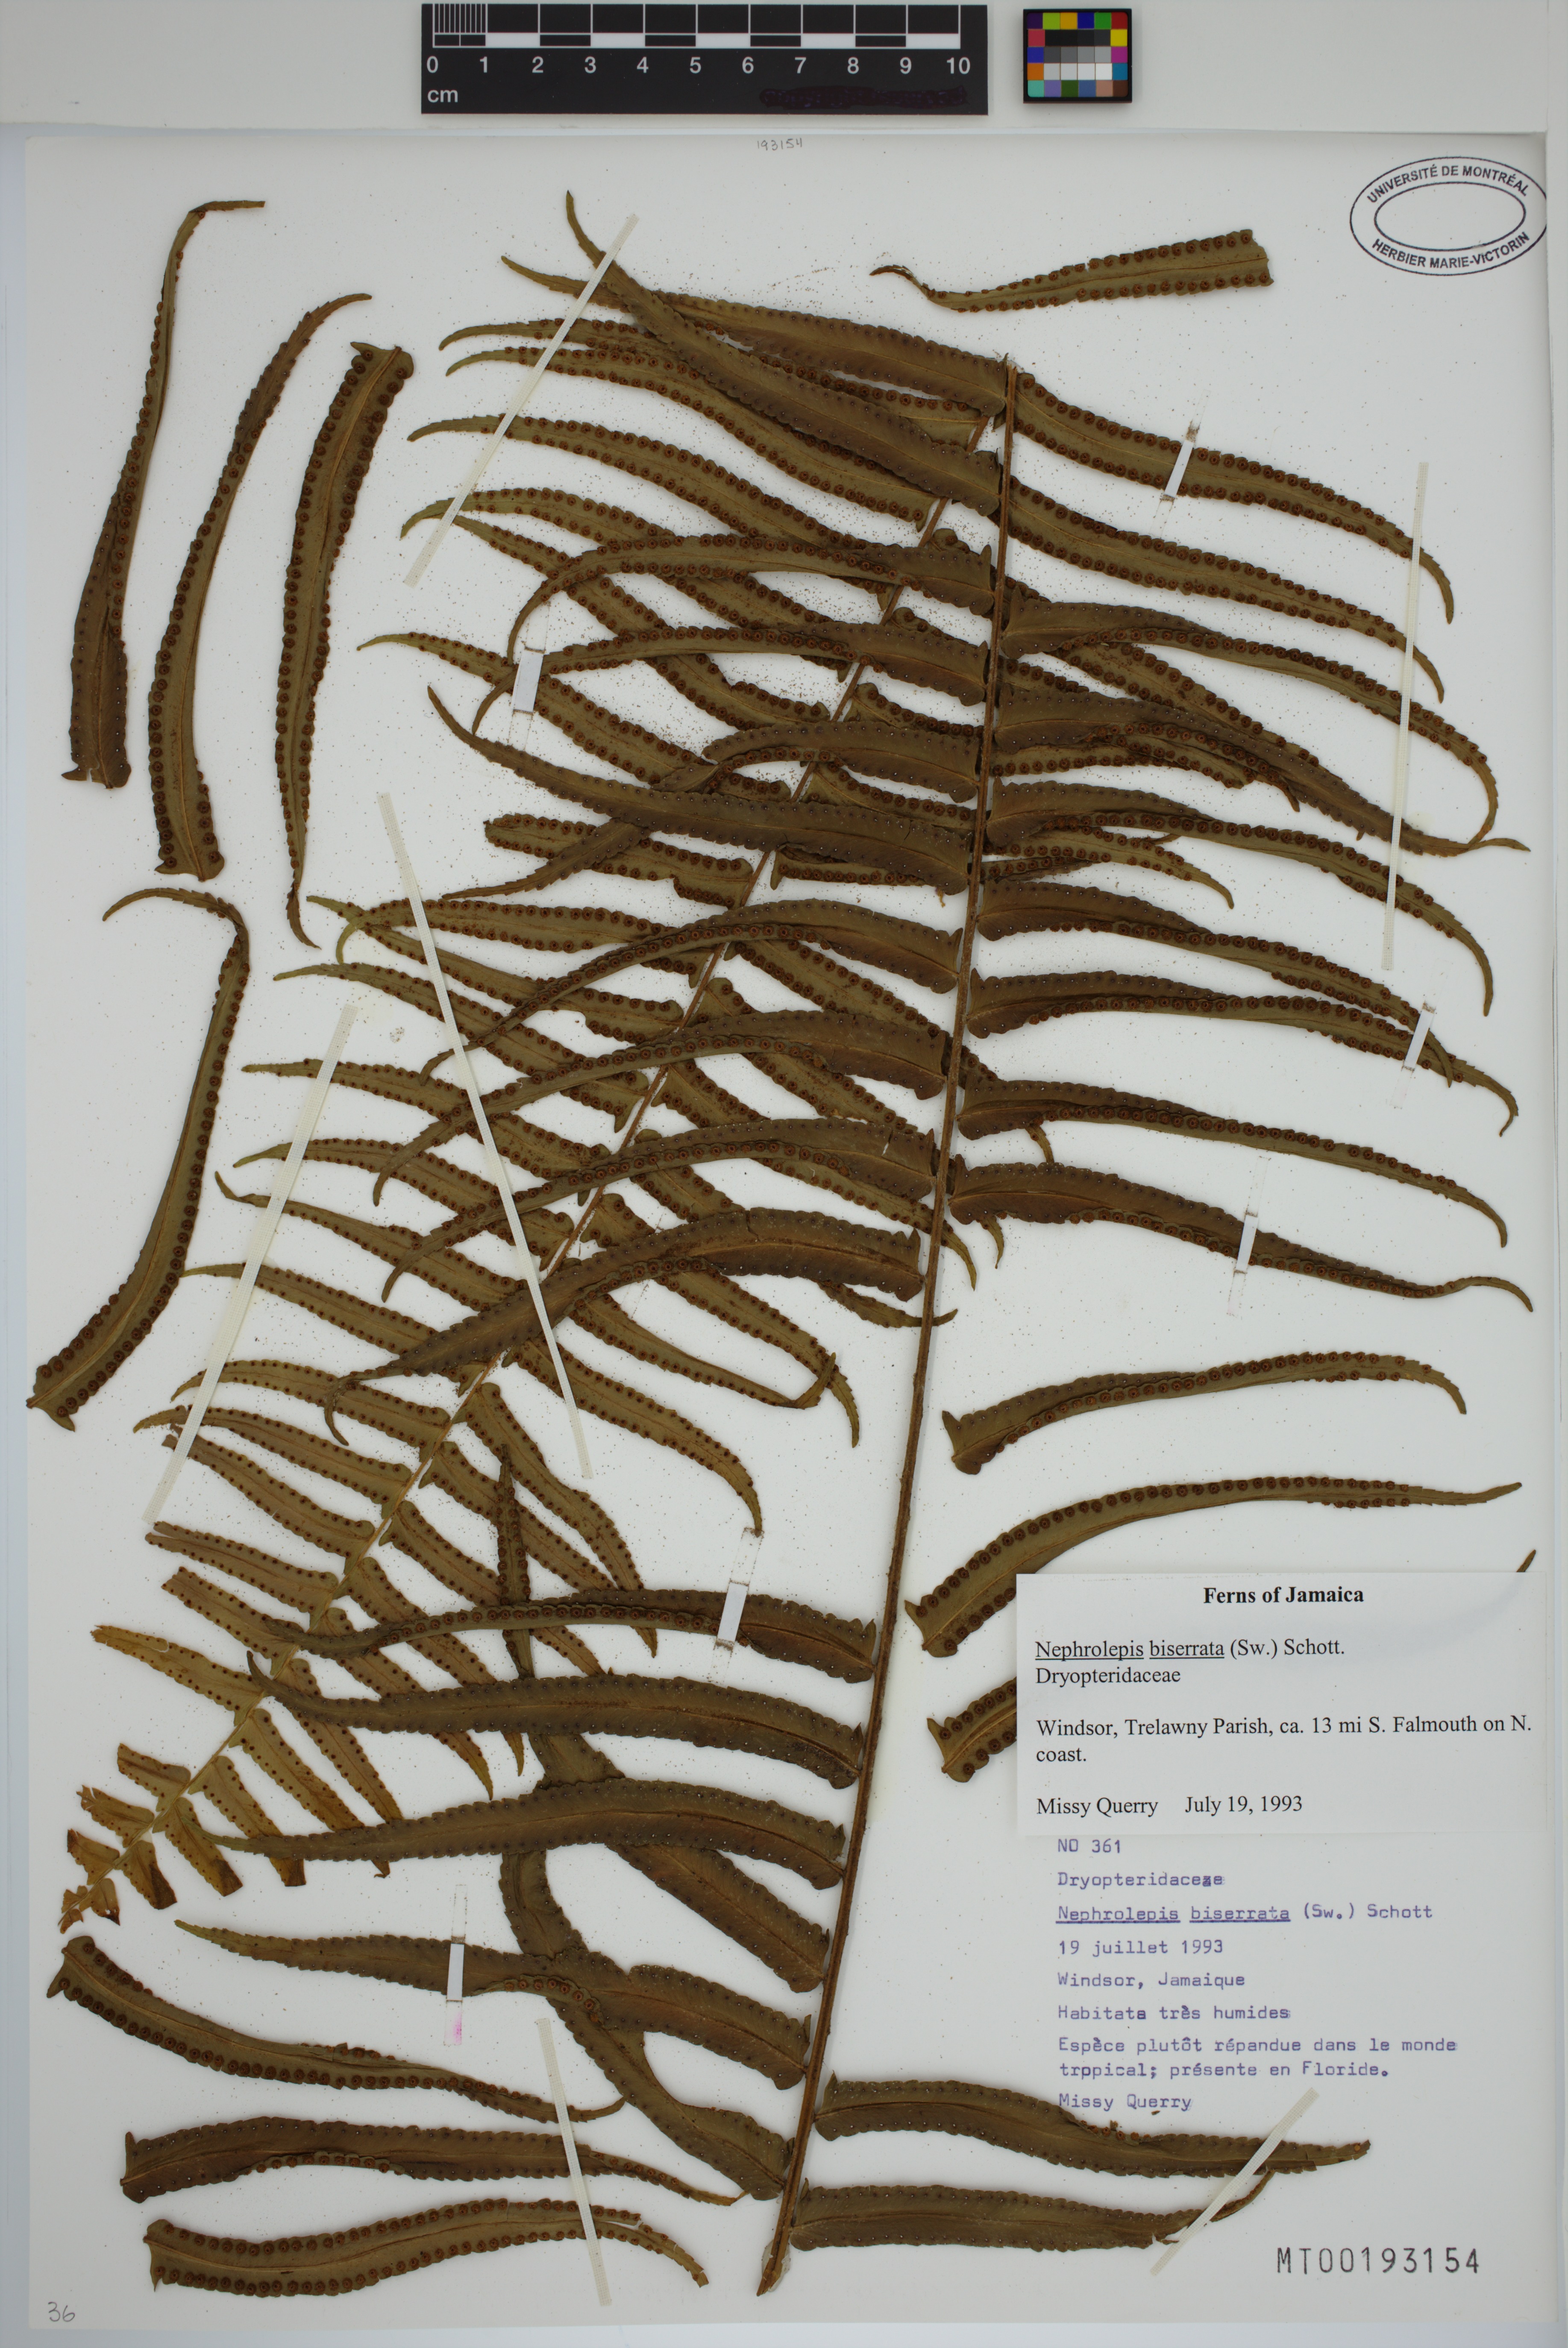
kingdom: Plantae
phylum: Tracheophyta
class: Polypodiopsida
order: Polypodiales
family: Nephrolepidaceae
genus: Nephrolepis
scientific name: Nephrolepis biserrata
